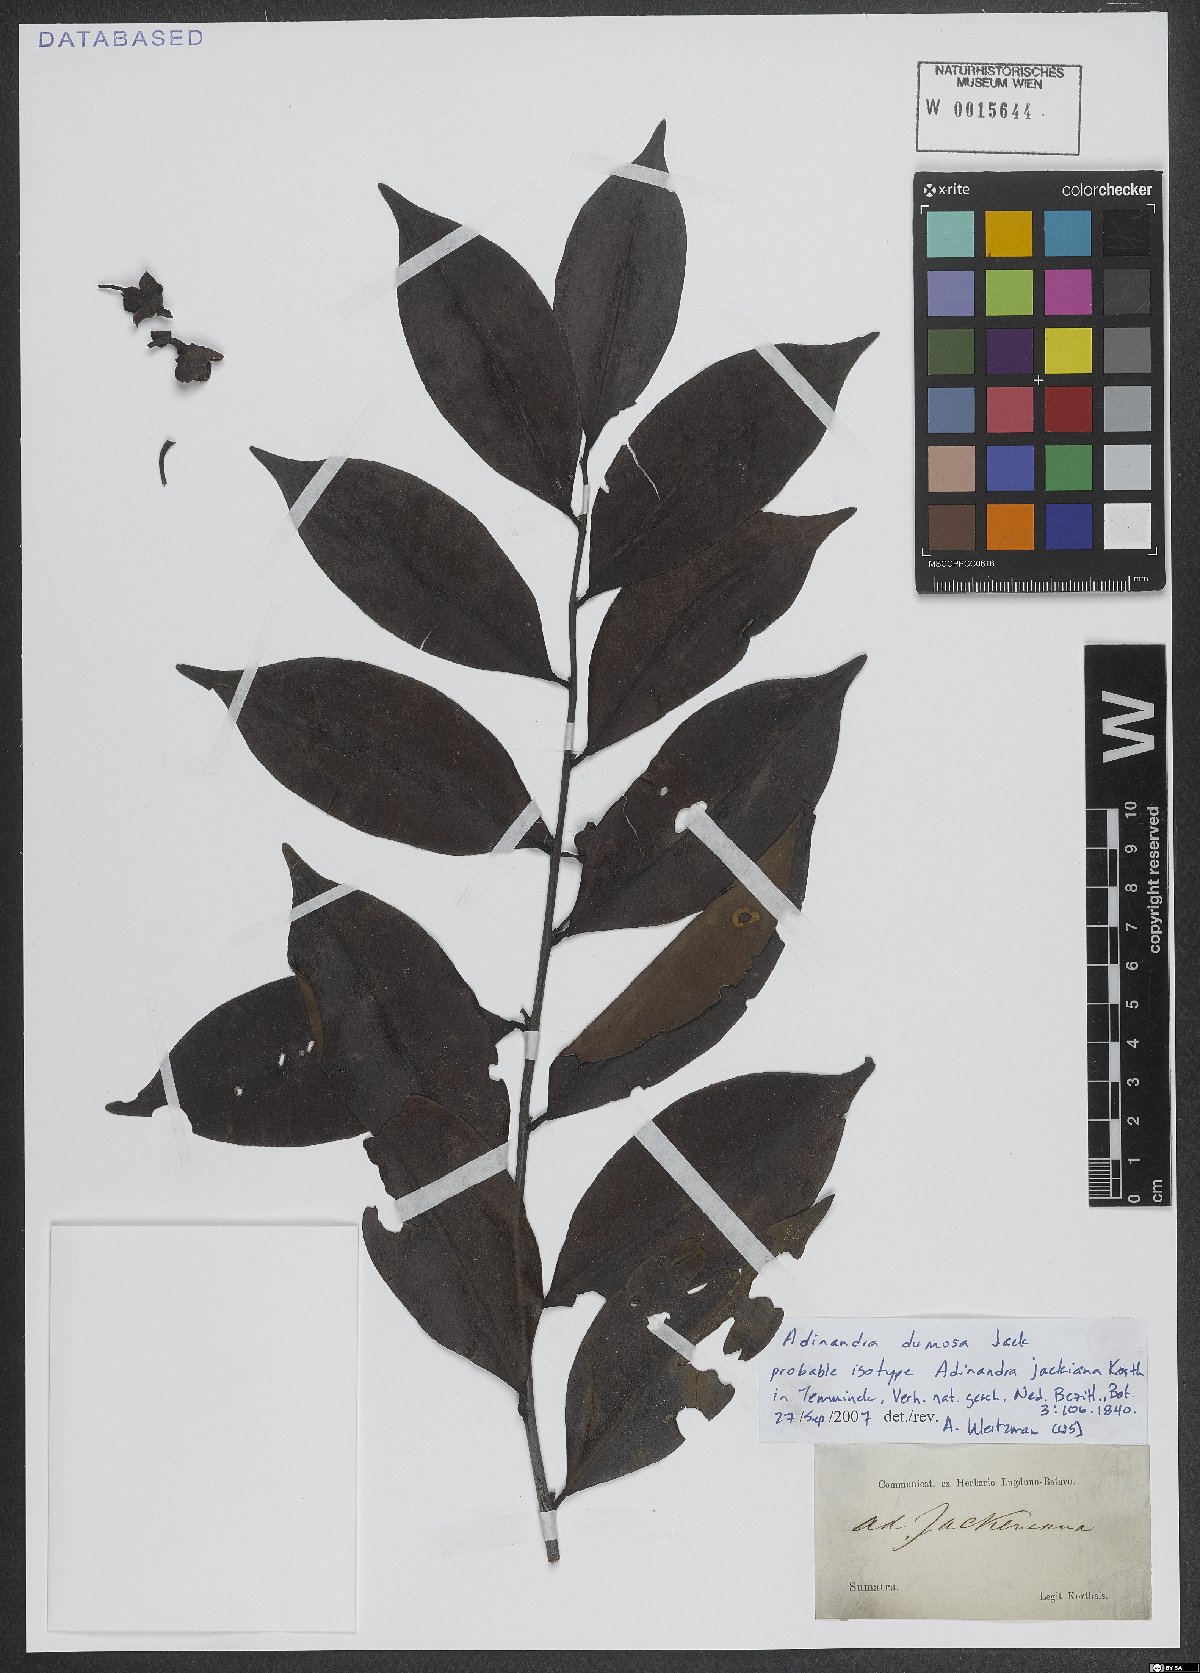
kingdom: Plantae
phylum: Tracheophyta
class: Magnoliopsida
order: Ericales
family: Pentaphylacaceae
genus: Adinandra
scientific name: Adinandra dumosa
